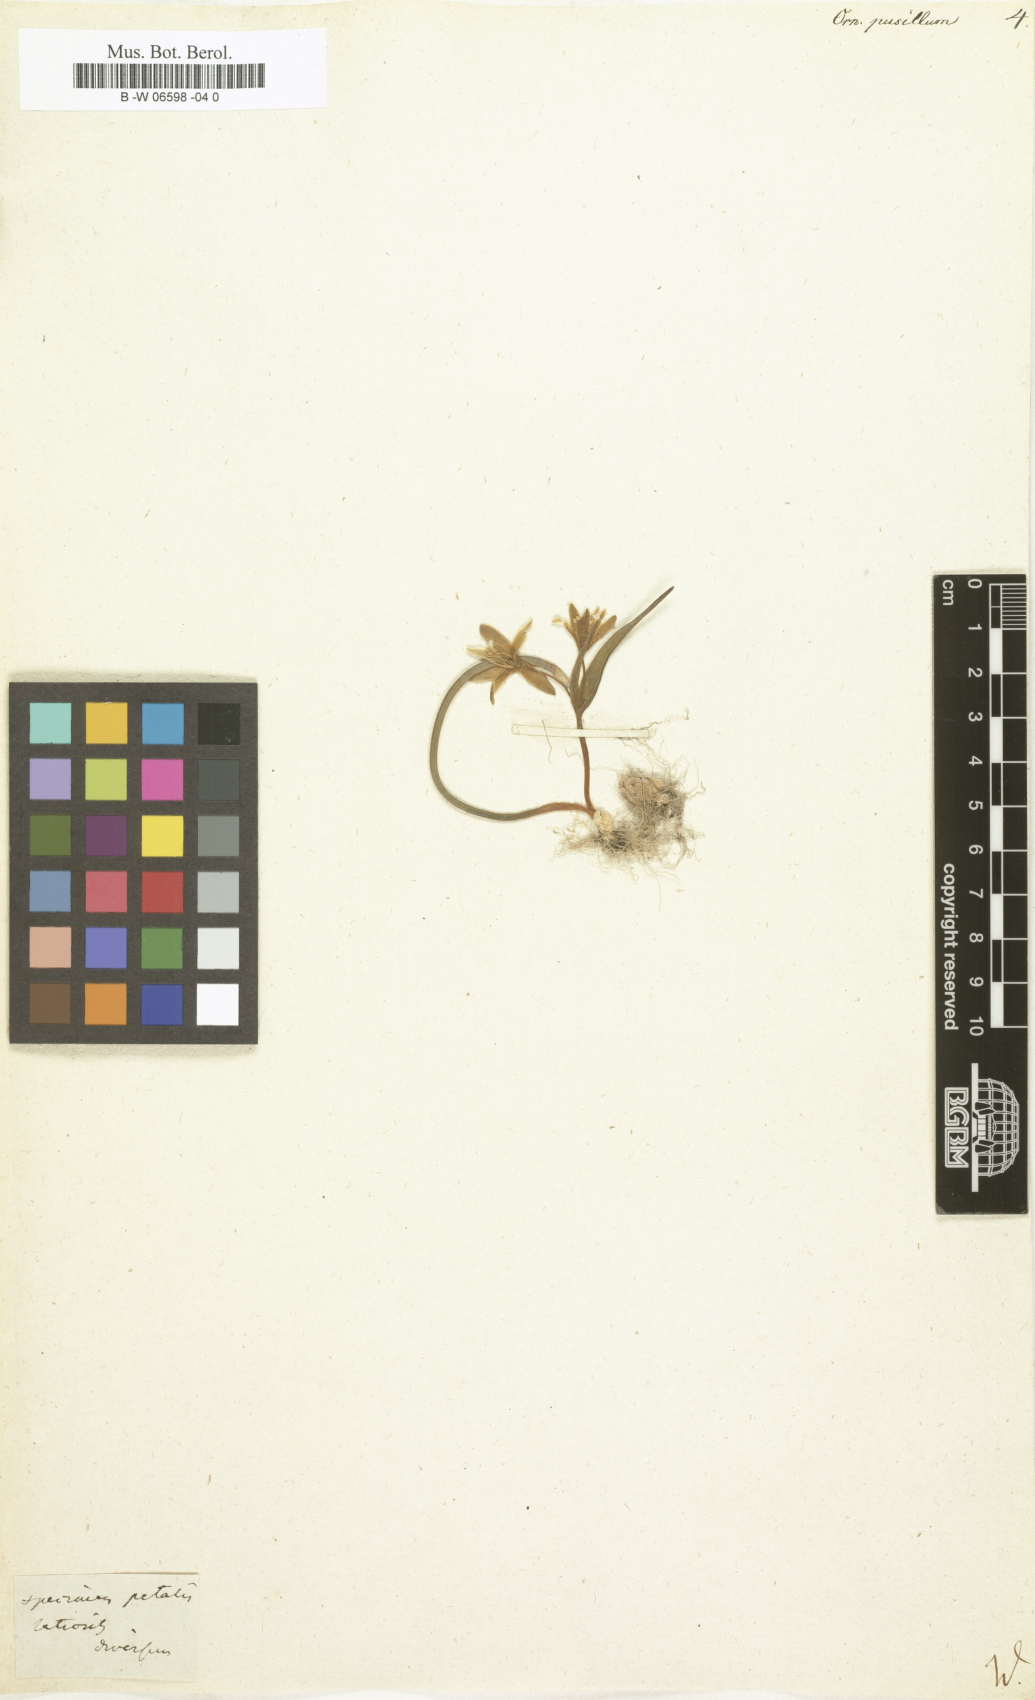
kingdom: Plantae
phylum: Tracheophyta
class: Liliopsida
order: Liliales
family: Liliaceae
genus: Gagea
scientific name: Gagea pusilla
